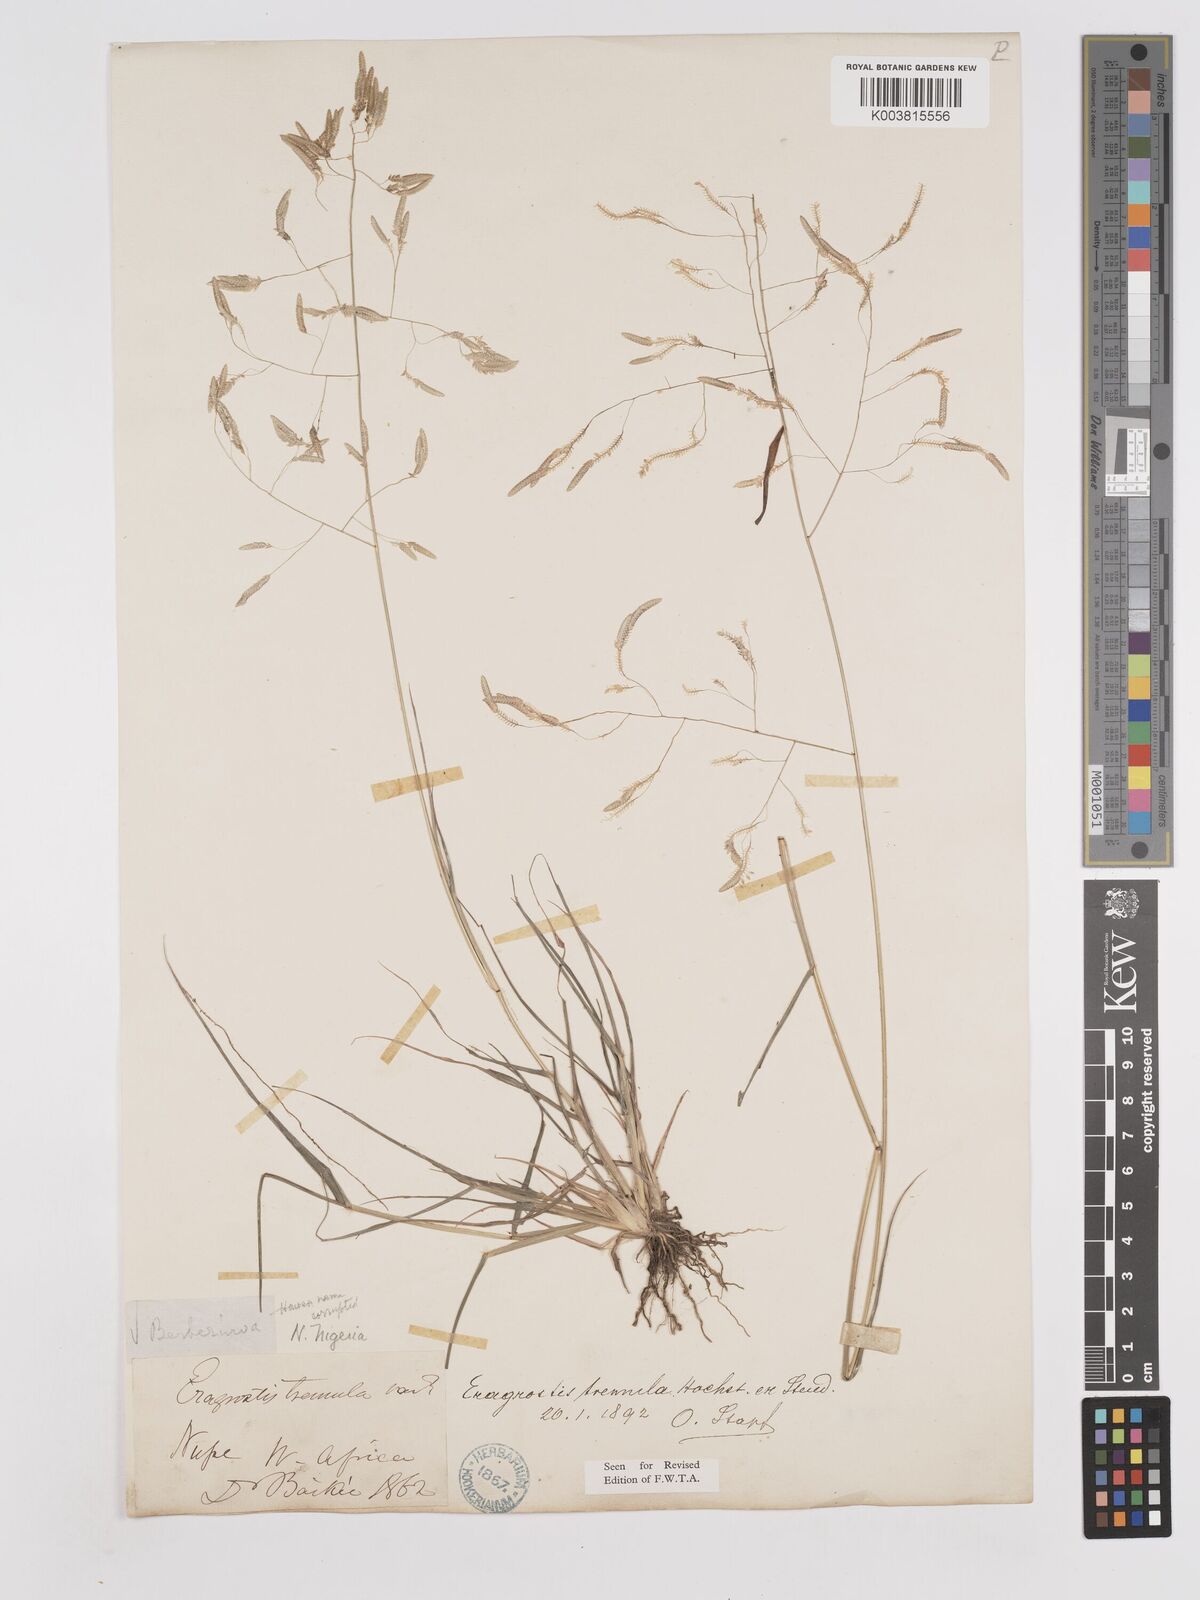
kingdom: Plantae
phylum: Tracheophyta
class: Liliopsida
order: Poales
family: Poaceae
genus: Eragrostis
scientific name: Eragrostis tremula
